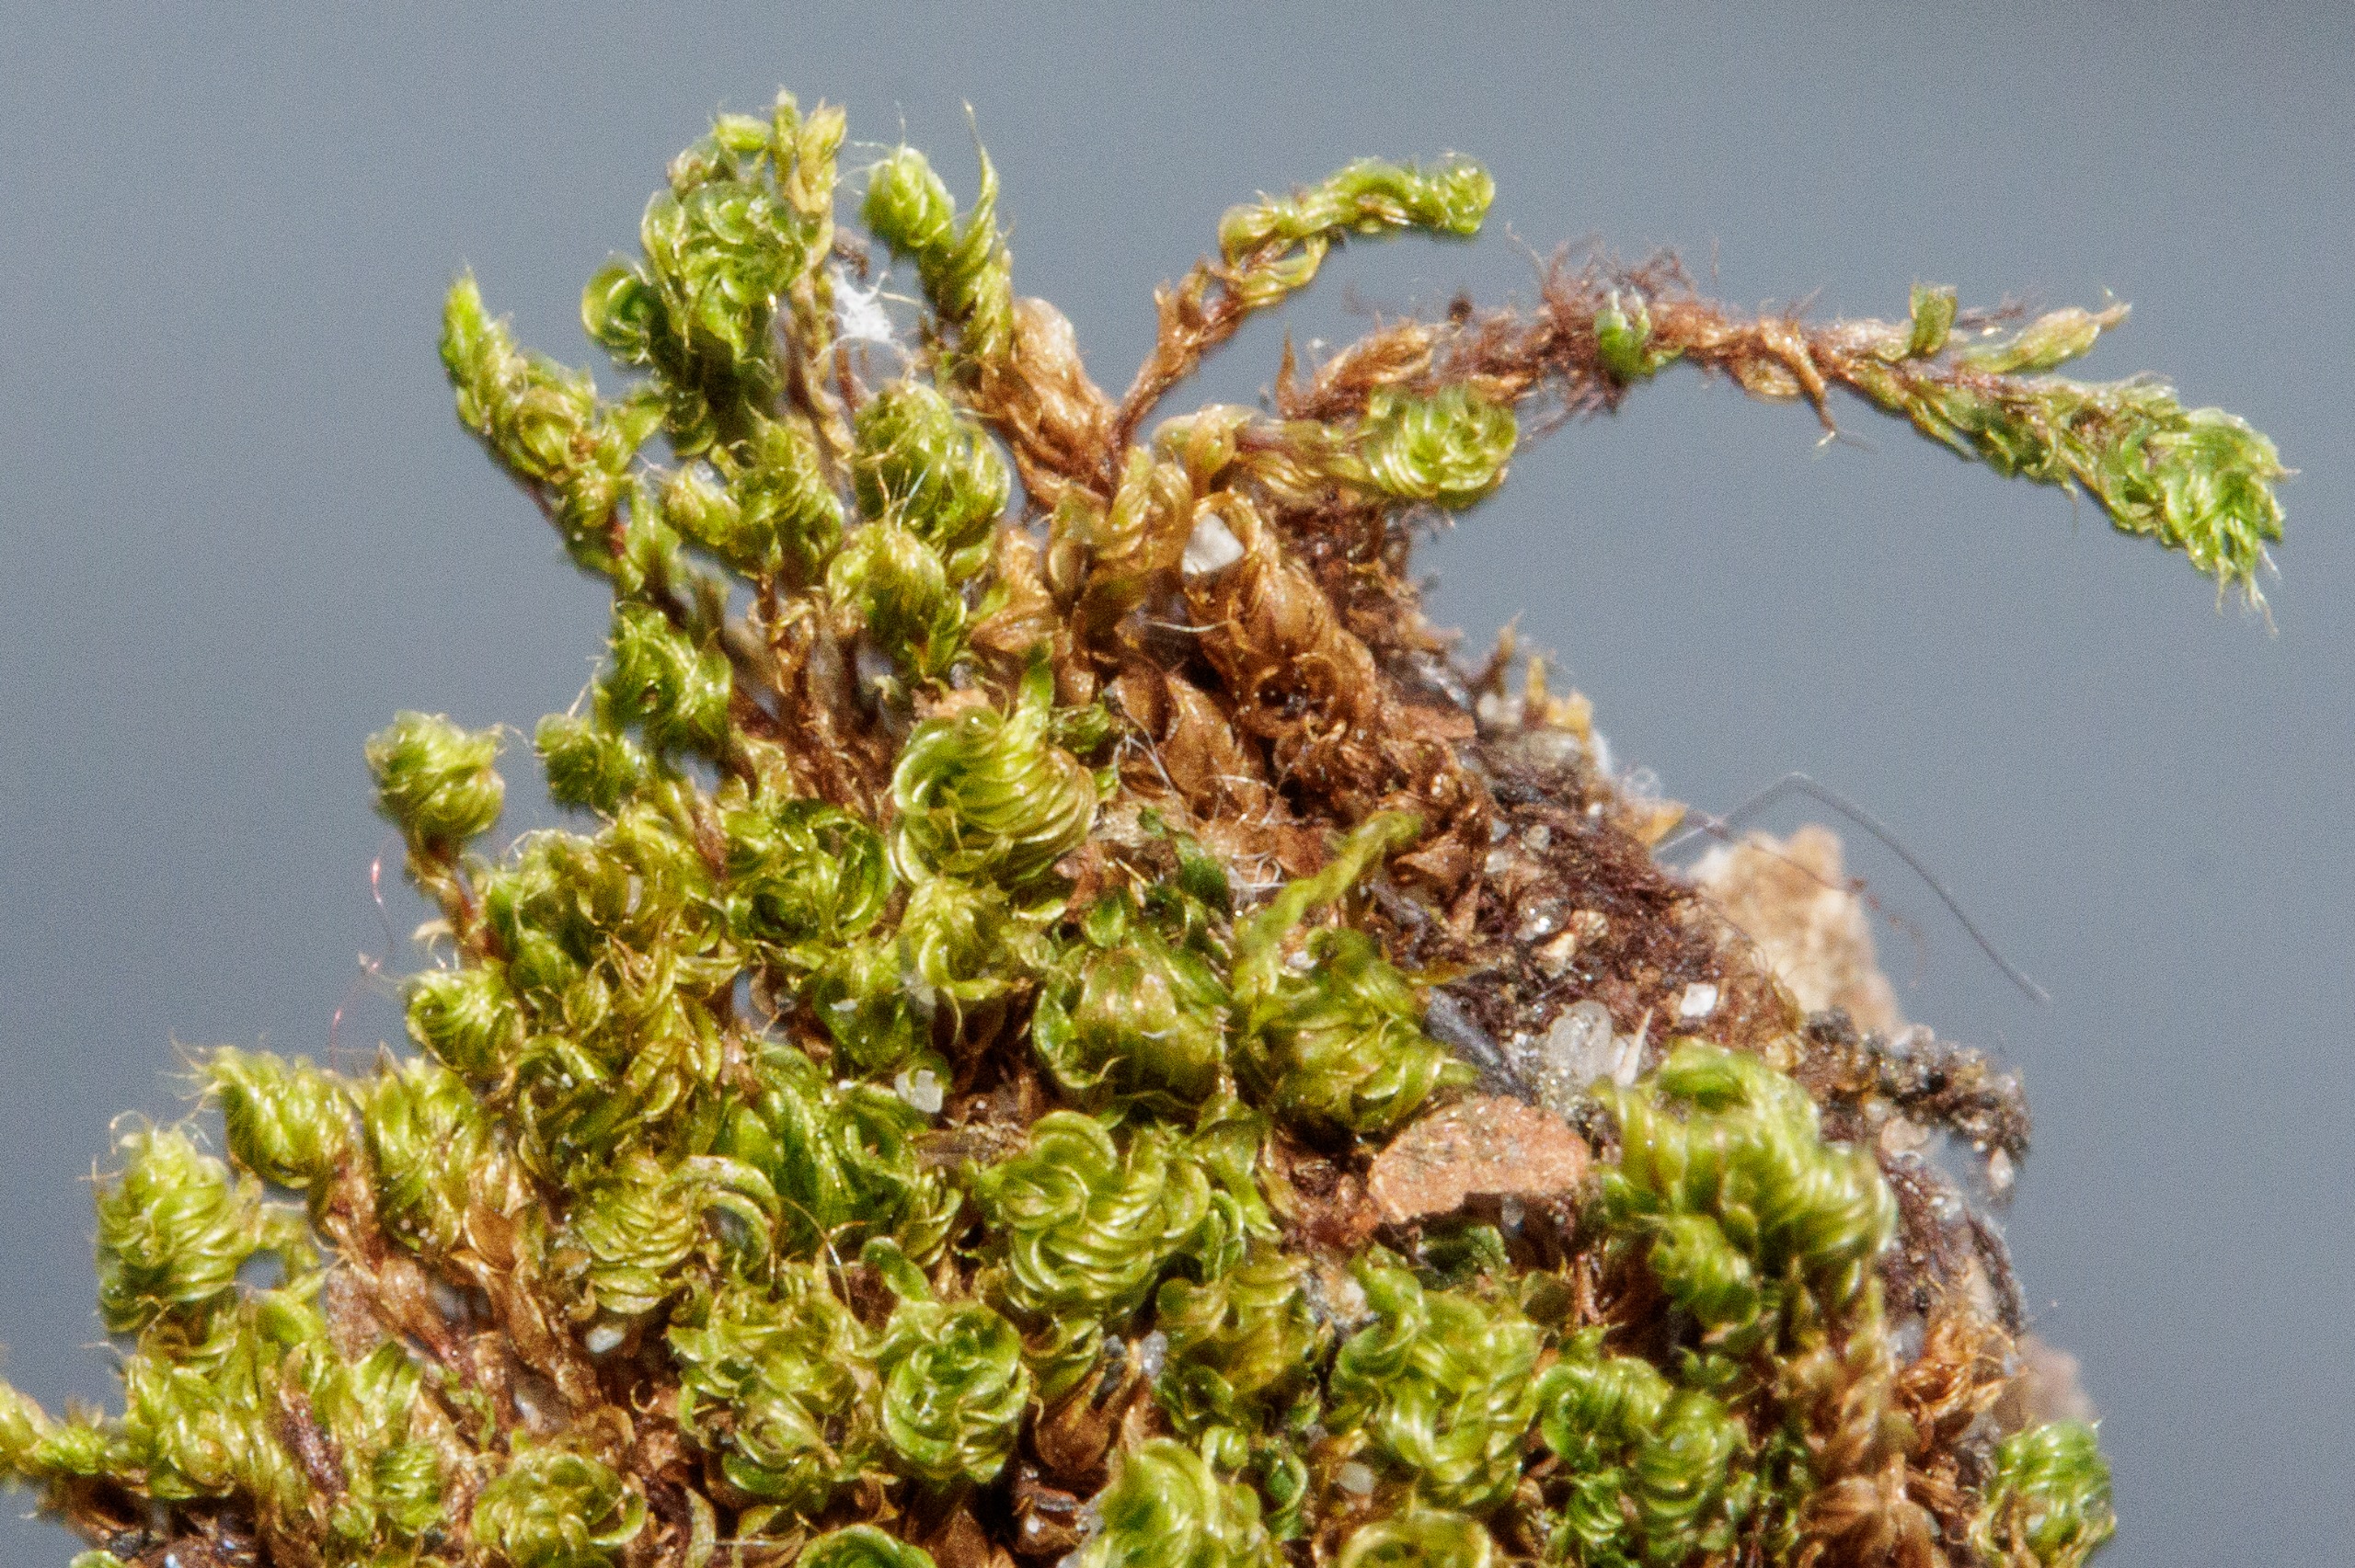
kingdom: Plantae
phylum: Bryophyta
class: Bryopsida
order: Bryales
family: Bryaceae
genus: Rosulabryum
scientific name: Rosulabryum capillare
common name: Hårspidset bryum
